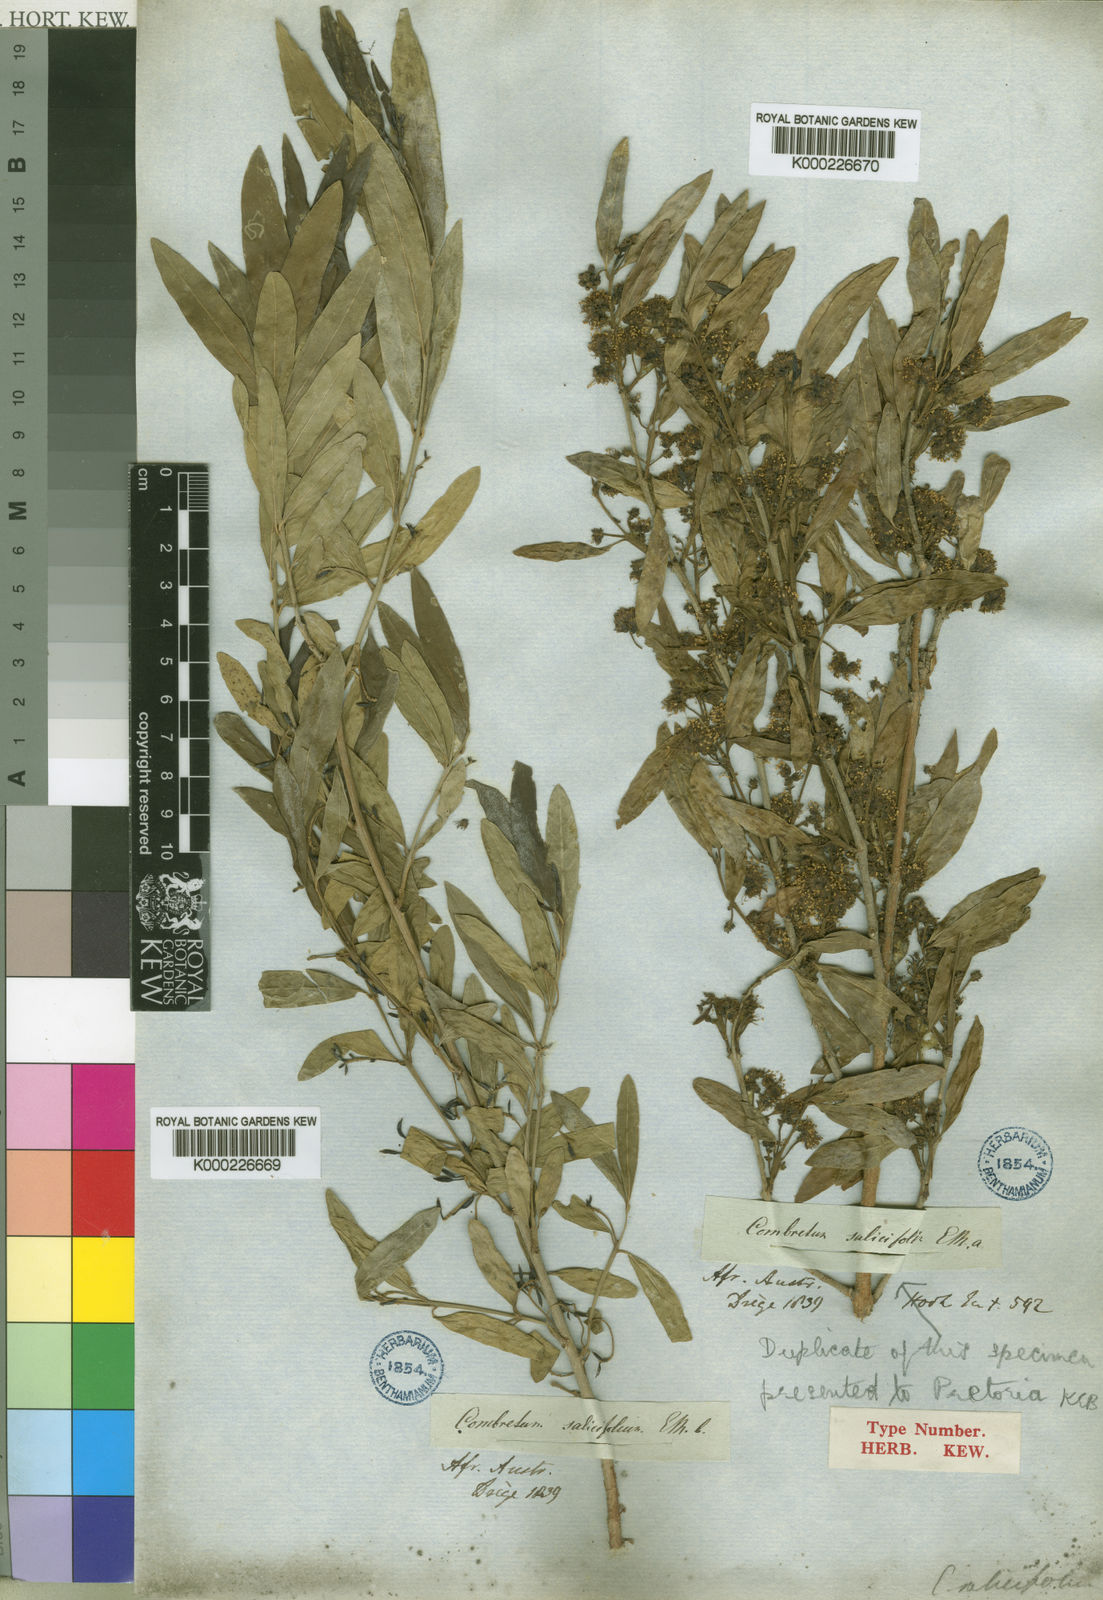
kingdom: Plantae
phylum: Tracheophyta
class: Magnoliopsida
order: Myrtales
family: Combretaceae
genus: Combretum
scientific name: Combretum caffrum
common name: Cape bushwillow
